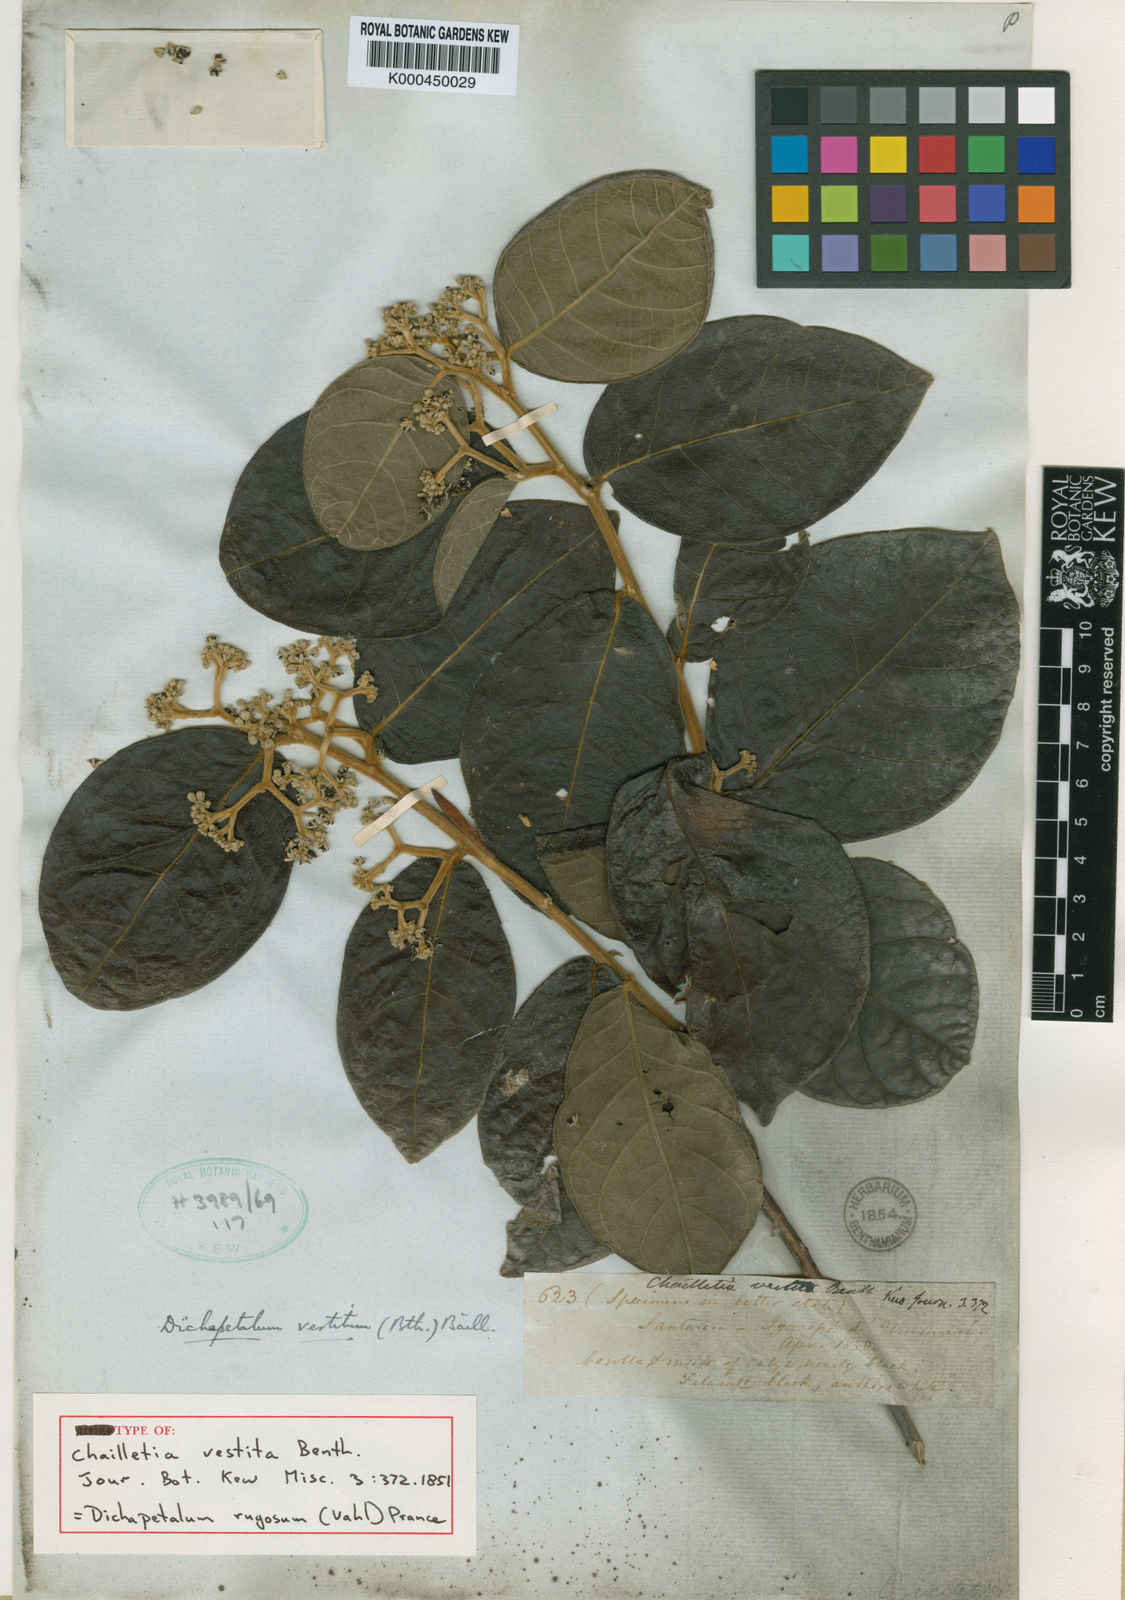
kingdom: Plantae
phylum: Tracheophyta
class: Magnoliopsida
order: Malpighiales
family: Dichapetalaceae
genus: Dichapetalum
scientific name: Dichapetalum rugosum
